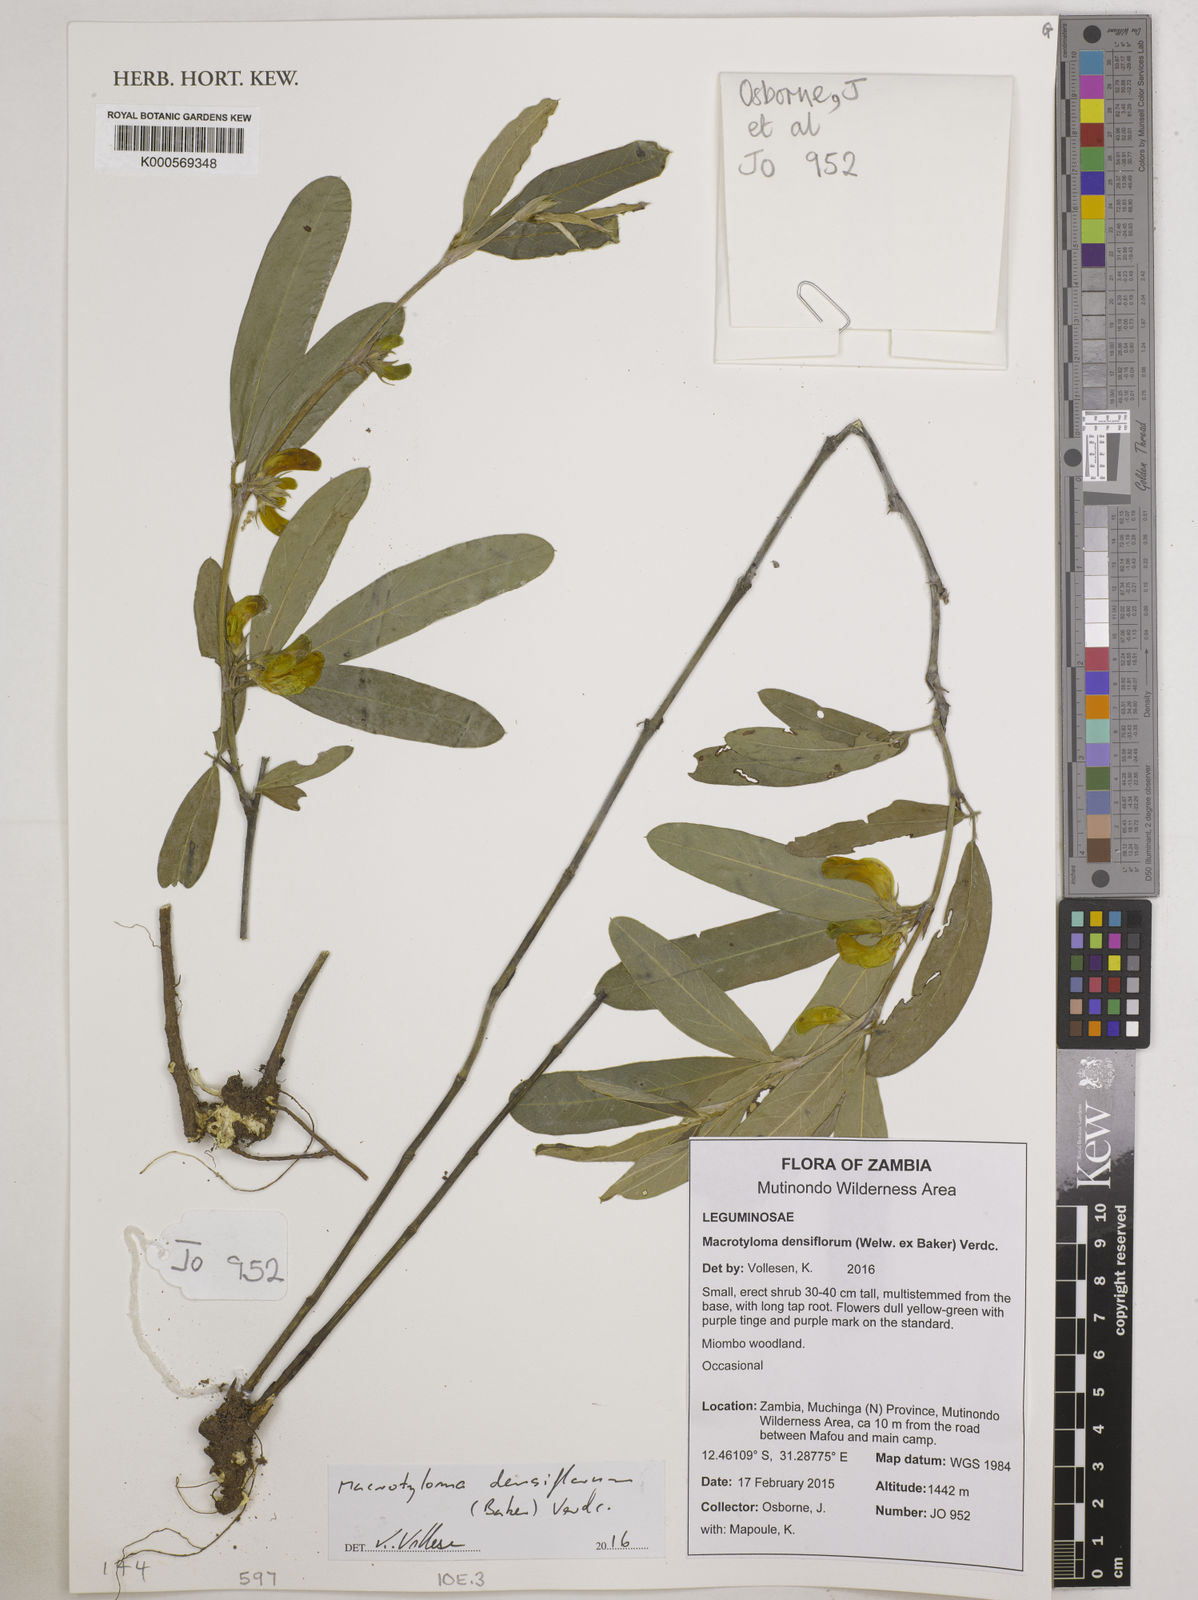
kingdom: Plantae
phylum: Tracheophyta
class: Magnoliopsida
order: Fabales
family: Fabaceae
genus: Macrotyloma
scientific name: Macrotyloma densiflorum
